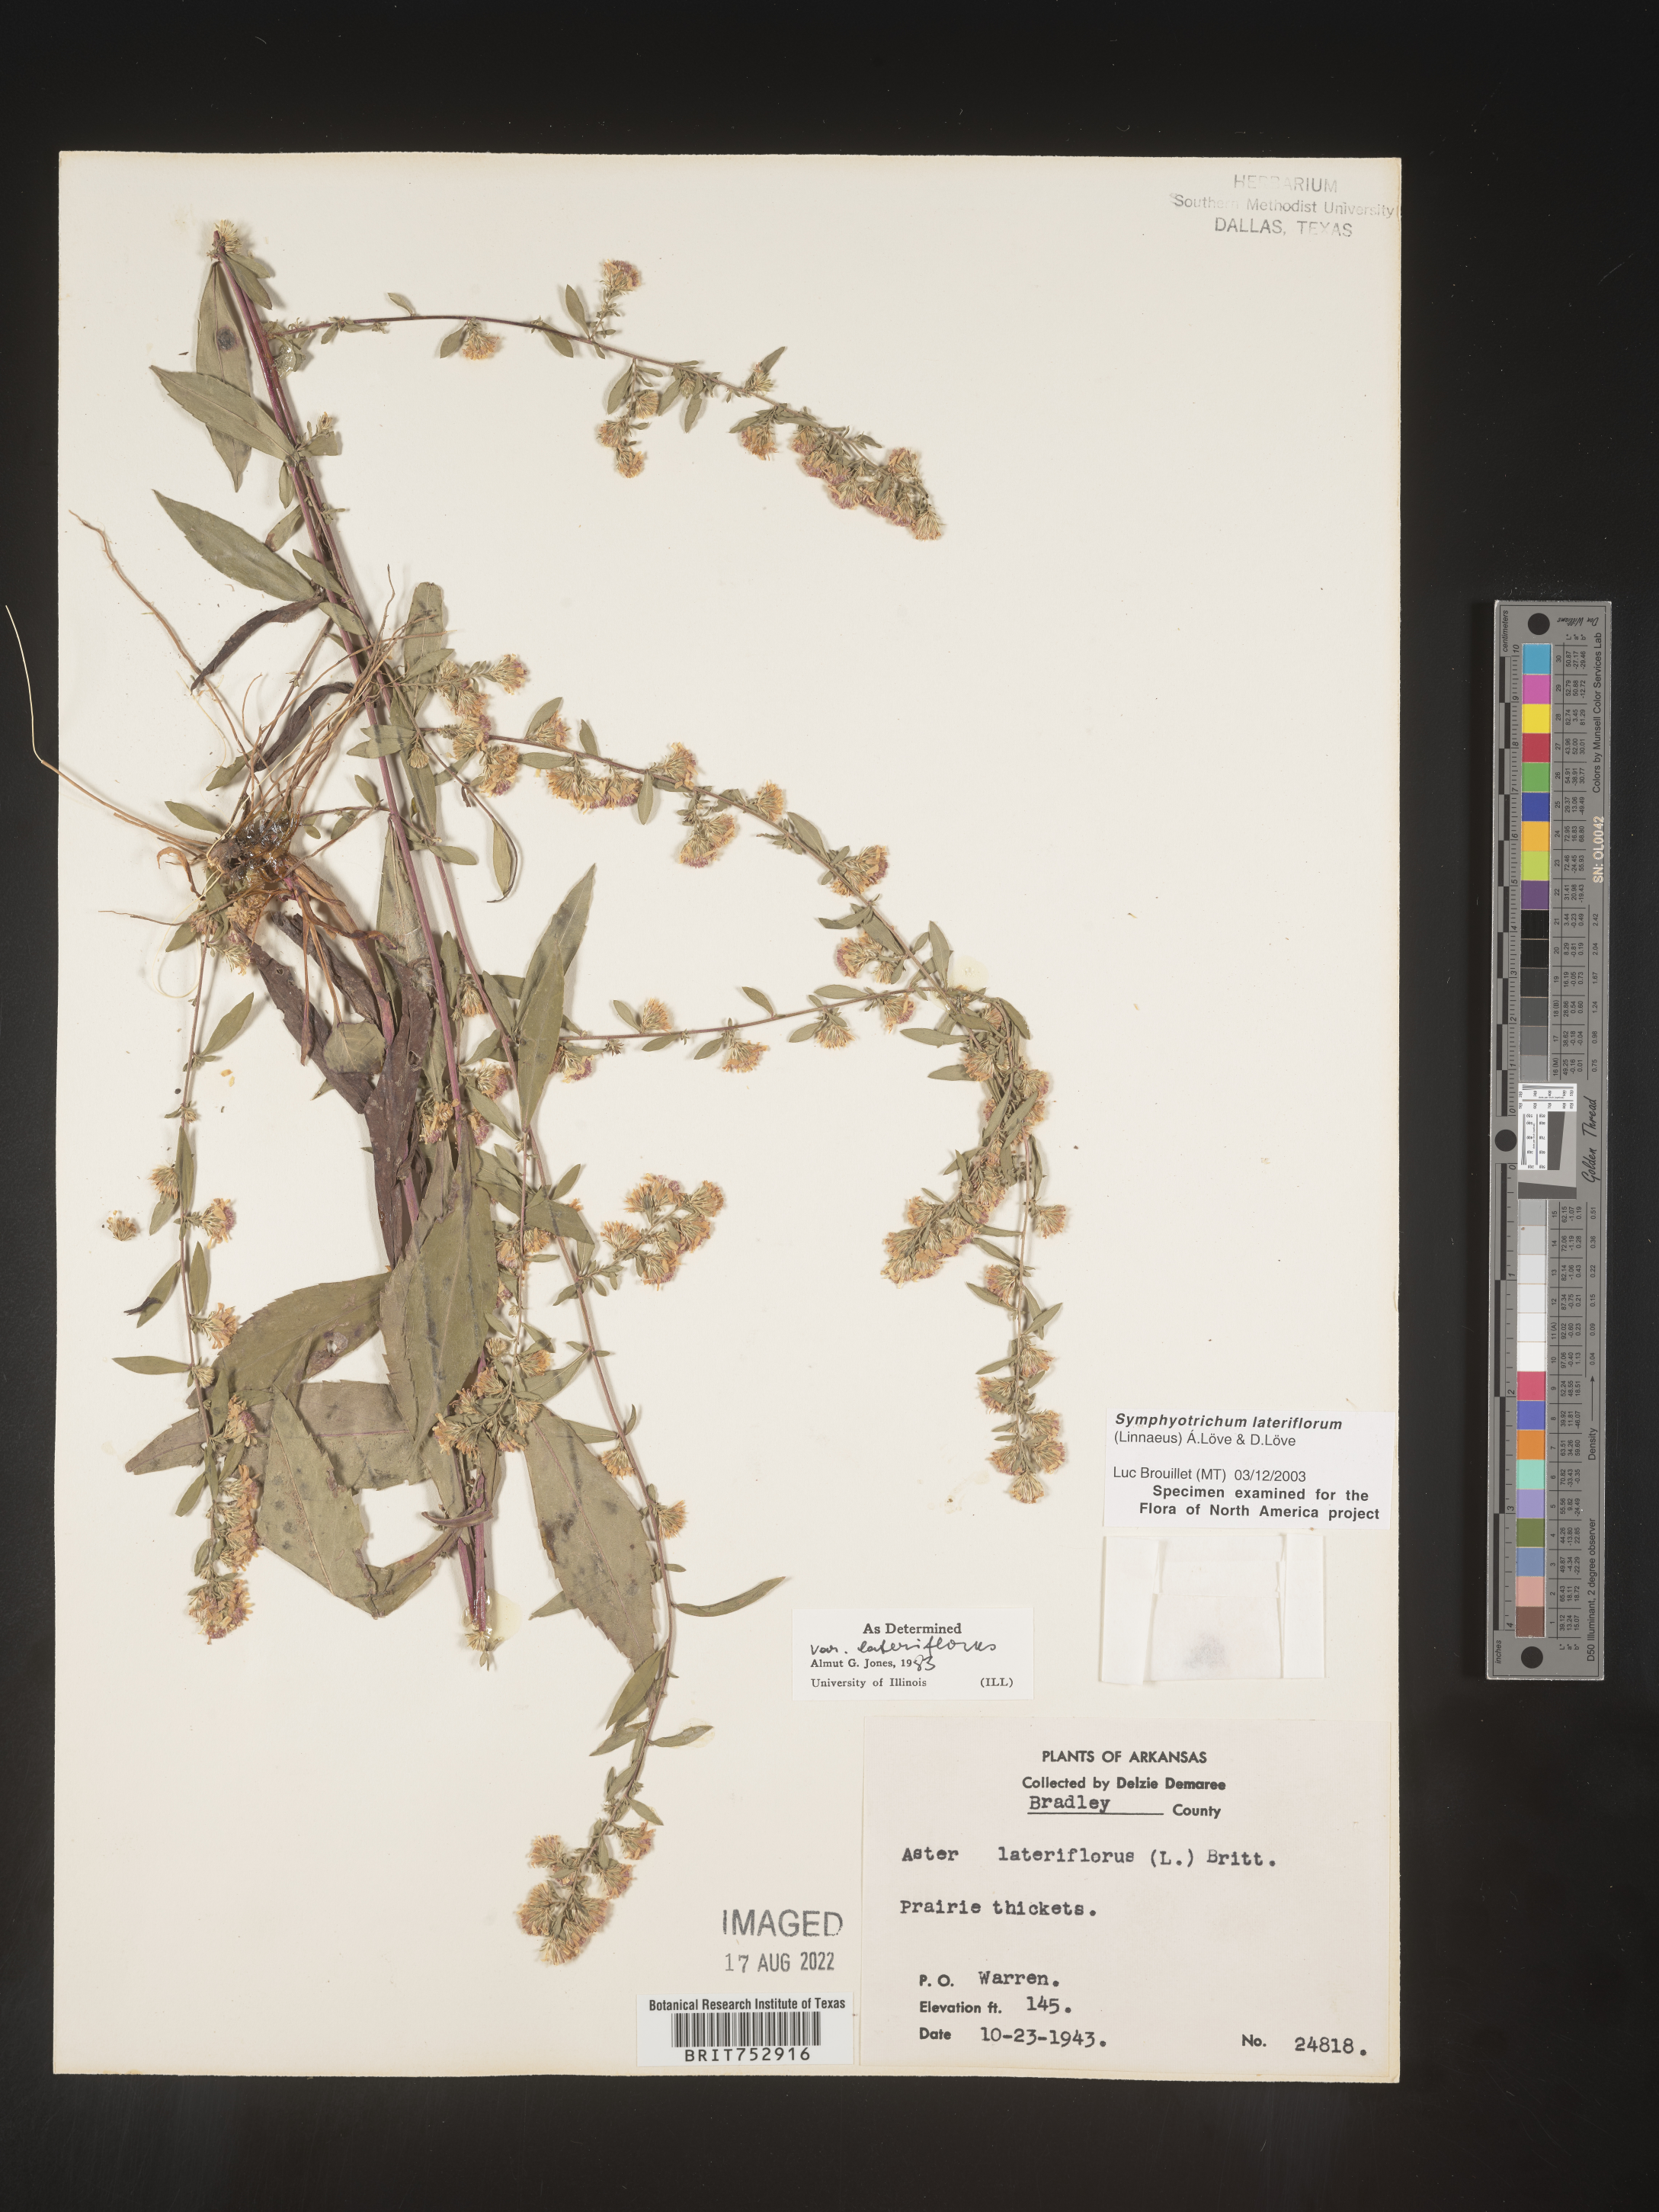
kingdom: Plantae
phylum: Tracheophyta
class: Magnoliopsida
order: Asterales
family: Asteraceae
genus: Symphyotrichum
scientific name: Symphyotrichum lateriflorum
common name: Calico aster
